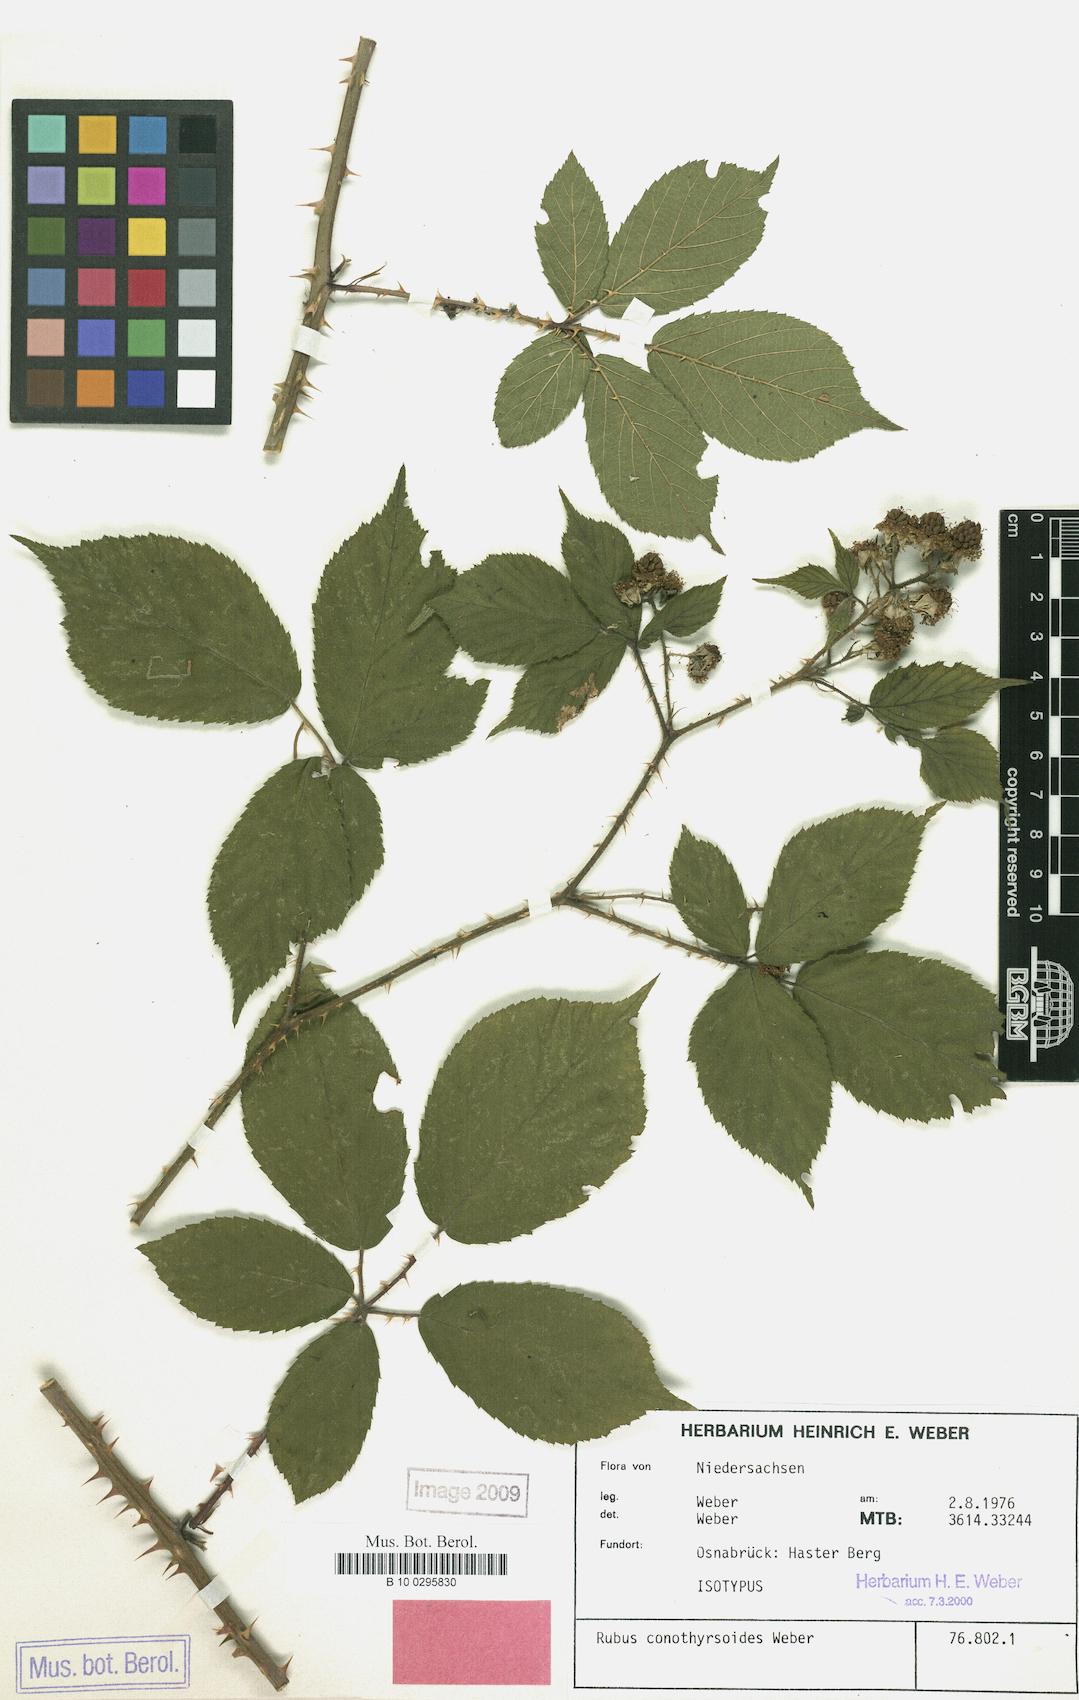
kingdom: Plantae
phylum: Tracheophyta
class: Magnoliopsida
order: Rosales
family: Rosaceae
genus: Rubus
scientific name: Rubus conothyrsoides
